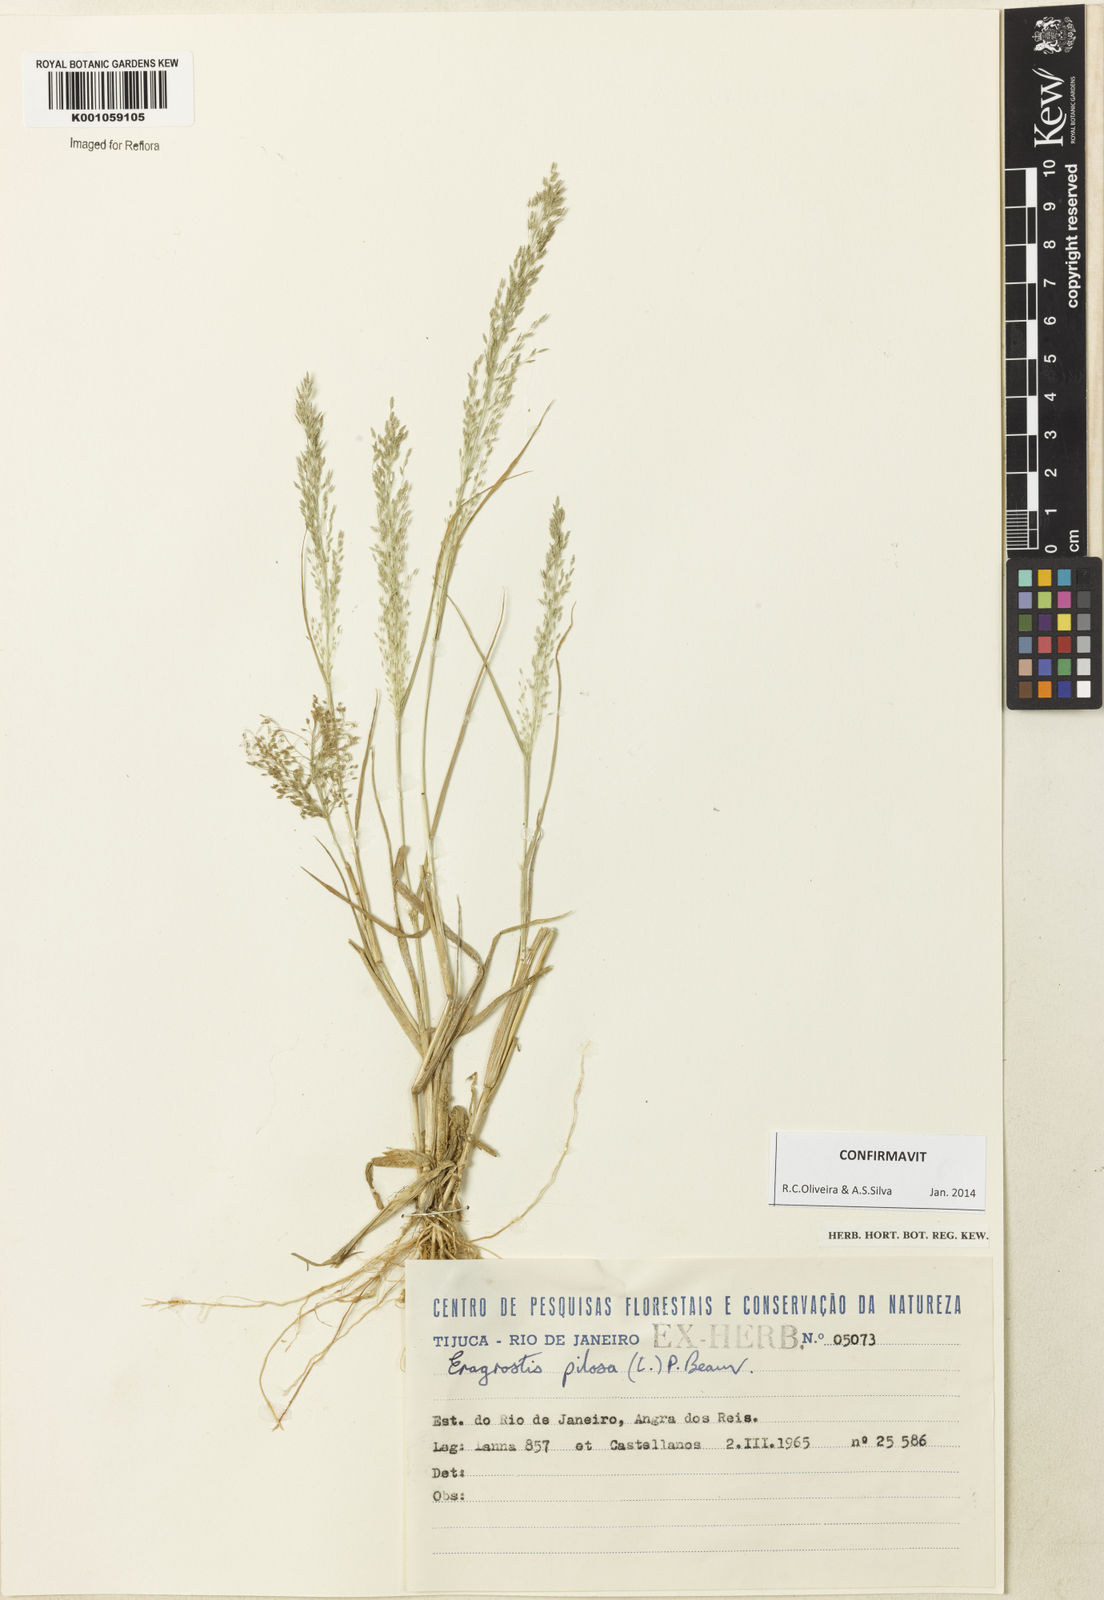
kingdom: Plantae
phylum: Tracheophyta
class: Liliopsida
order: Poales
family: Poaceae
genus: Eragrostis
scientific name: Eragrostis pilosa
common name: Indian lovegrass
